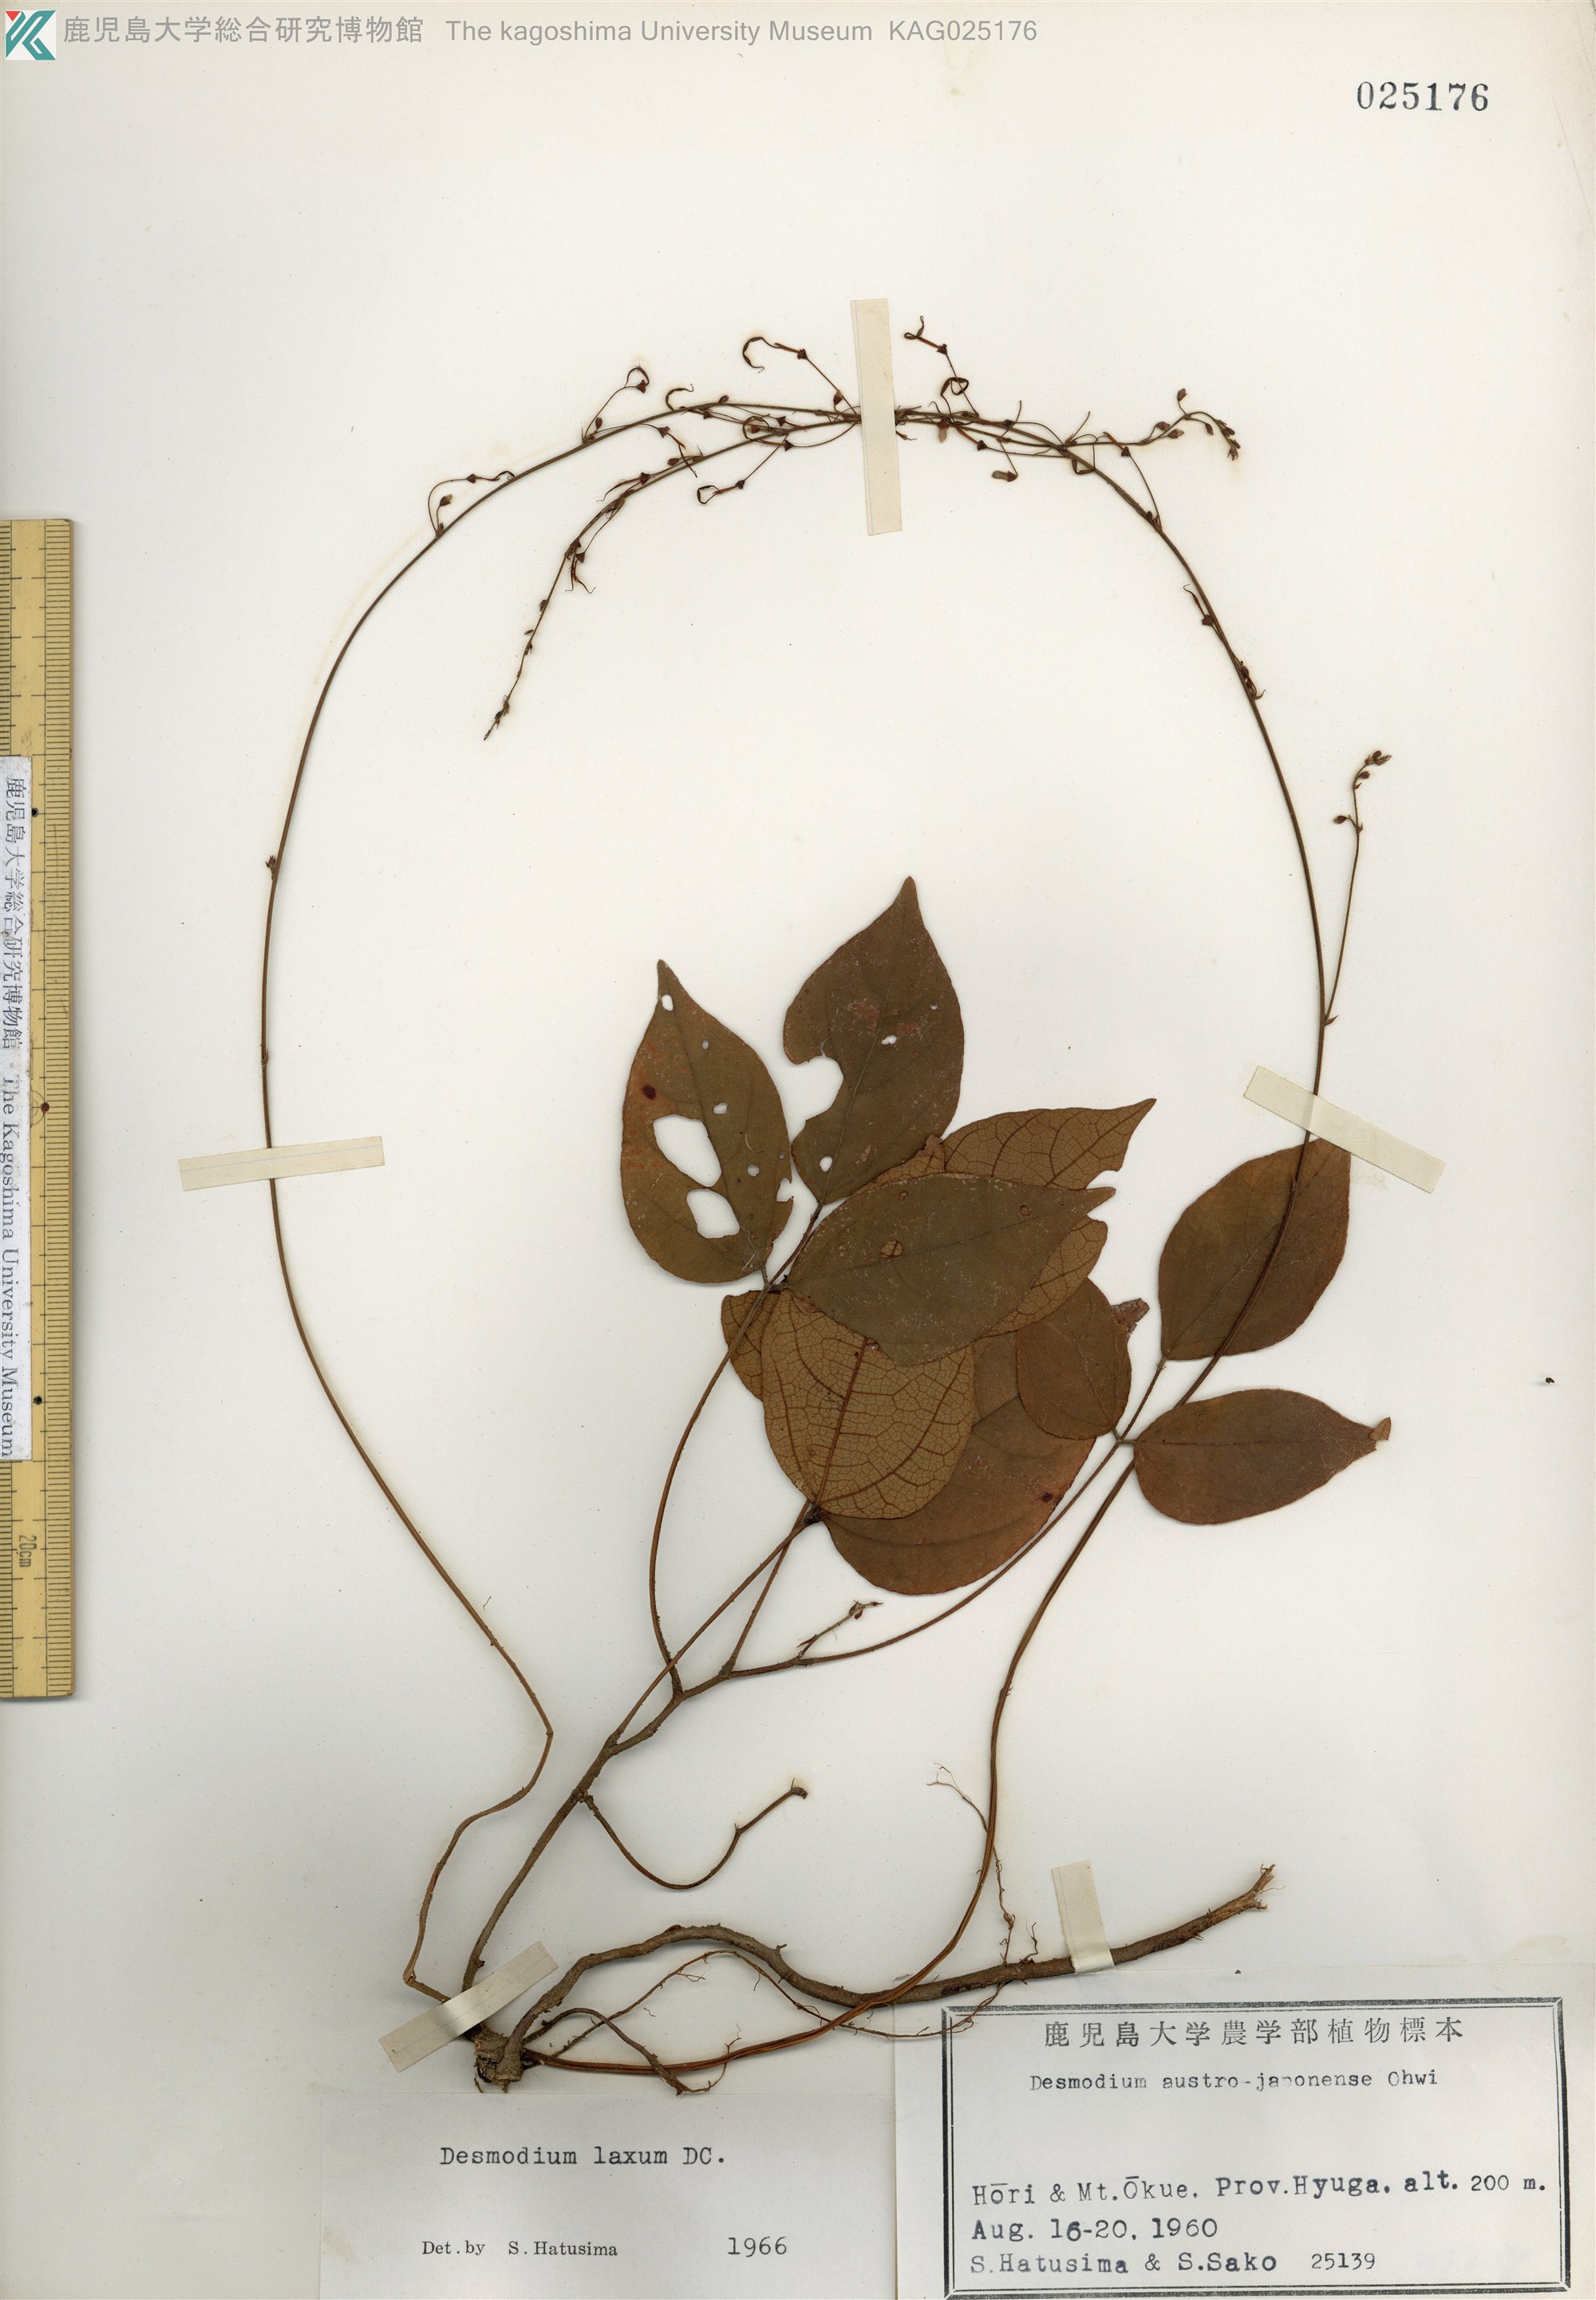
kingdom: Plantae
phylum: Tracheophyta
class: Magnoliopsida
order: Fabales
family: Fabaceae
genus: Desmodium
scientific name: Desmodium laxum
